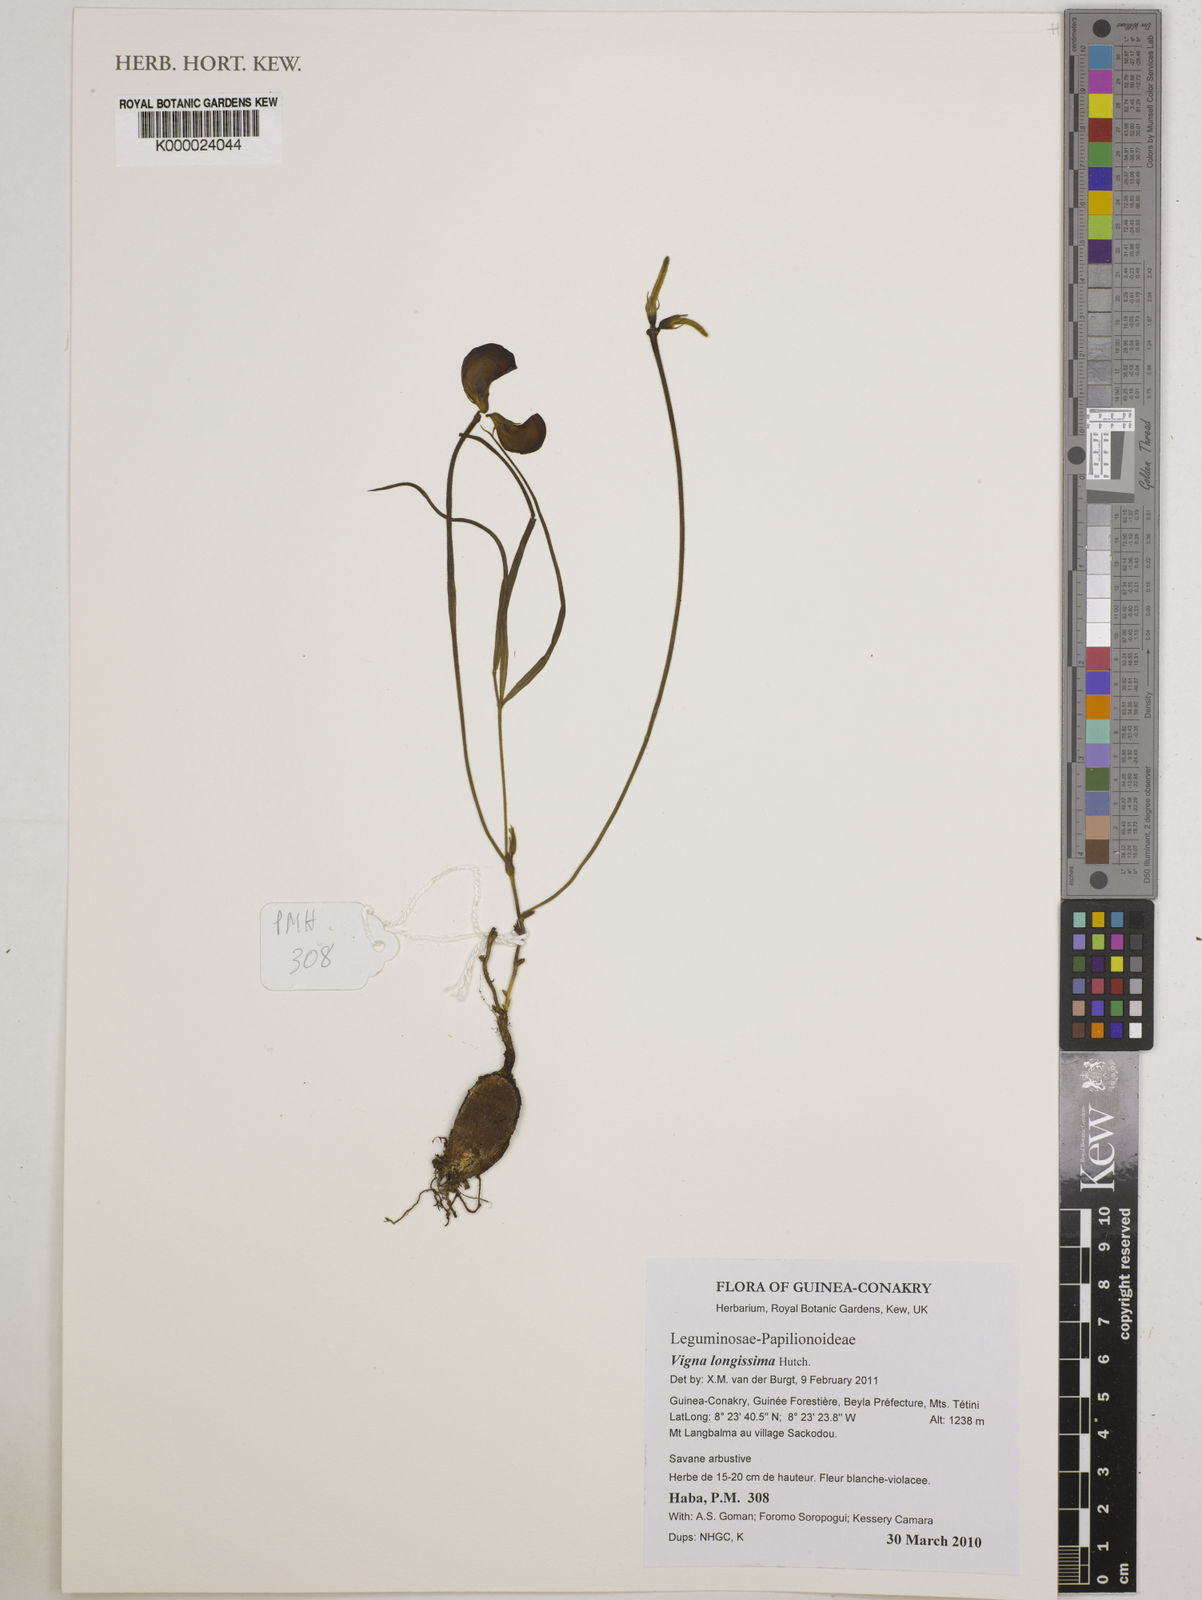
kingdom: Plantae
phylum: Tracheophyta
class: Magnoliopsida
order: Fabales
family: Fabaceae
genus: Vigna
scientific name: Vigna longissima
